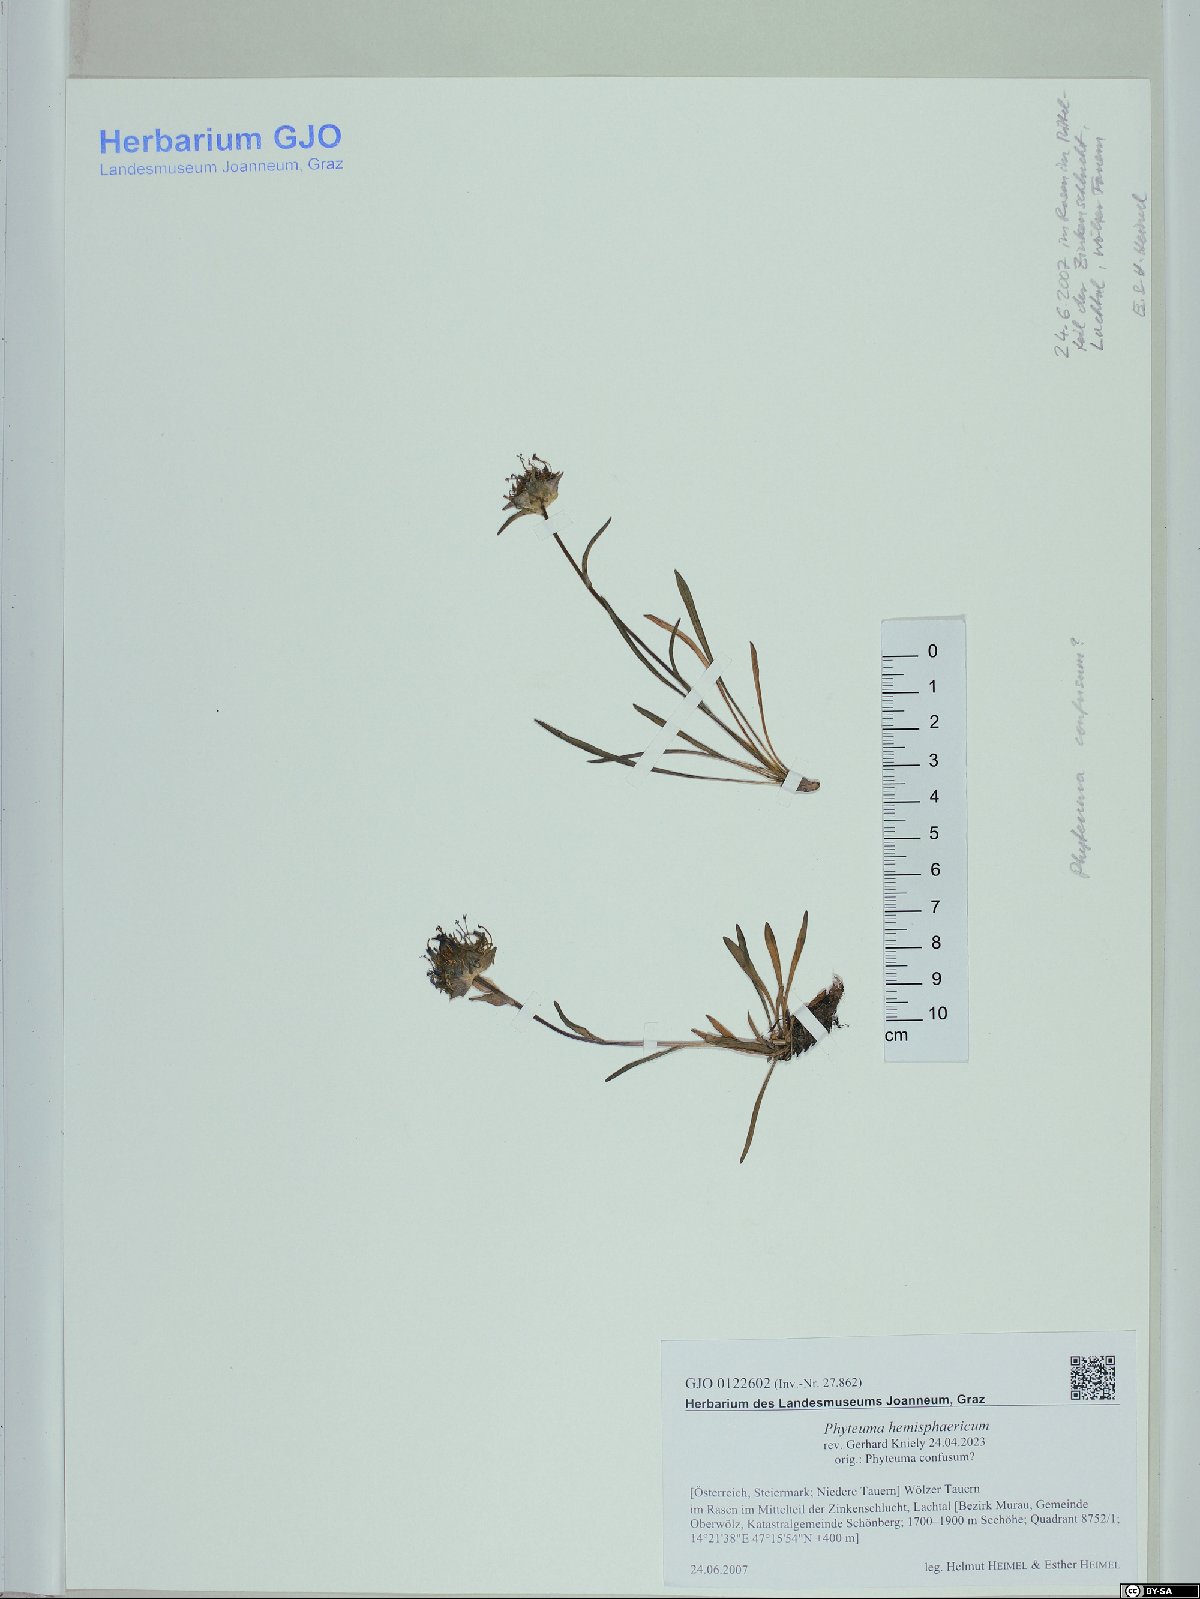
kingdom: Plantae
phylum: Tracheophyta
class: Magnoliopsida
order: Asterales
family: Campanulaceae
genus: Phyteuma
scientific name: Phyteuma hemisphaericum
